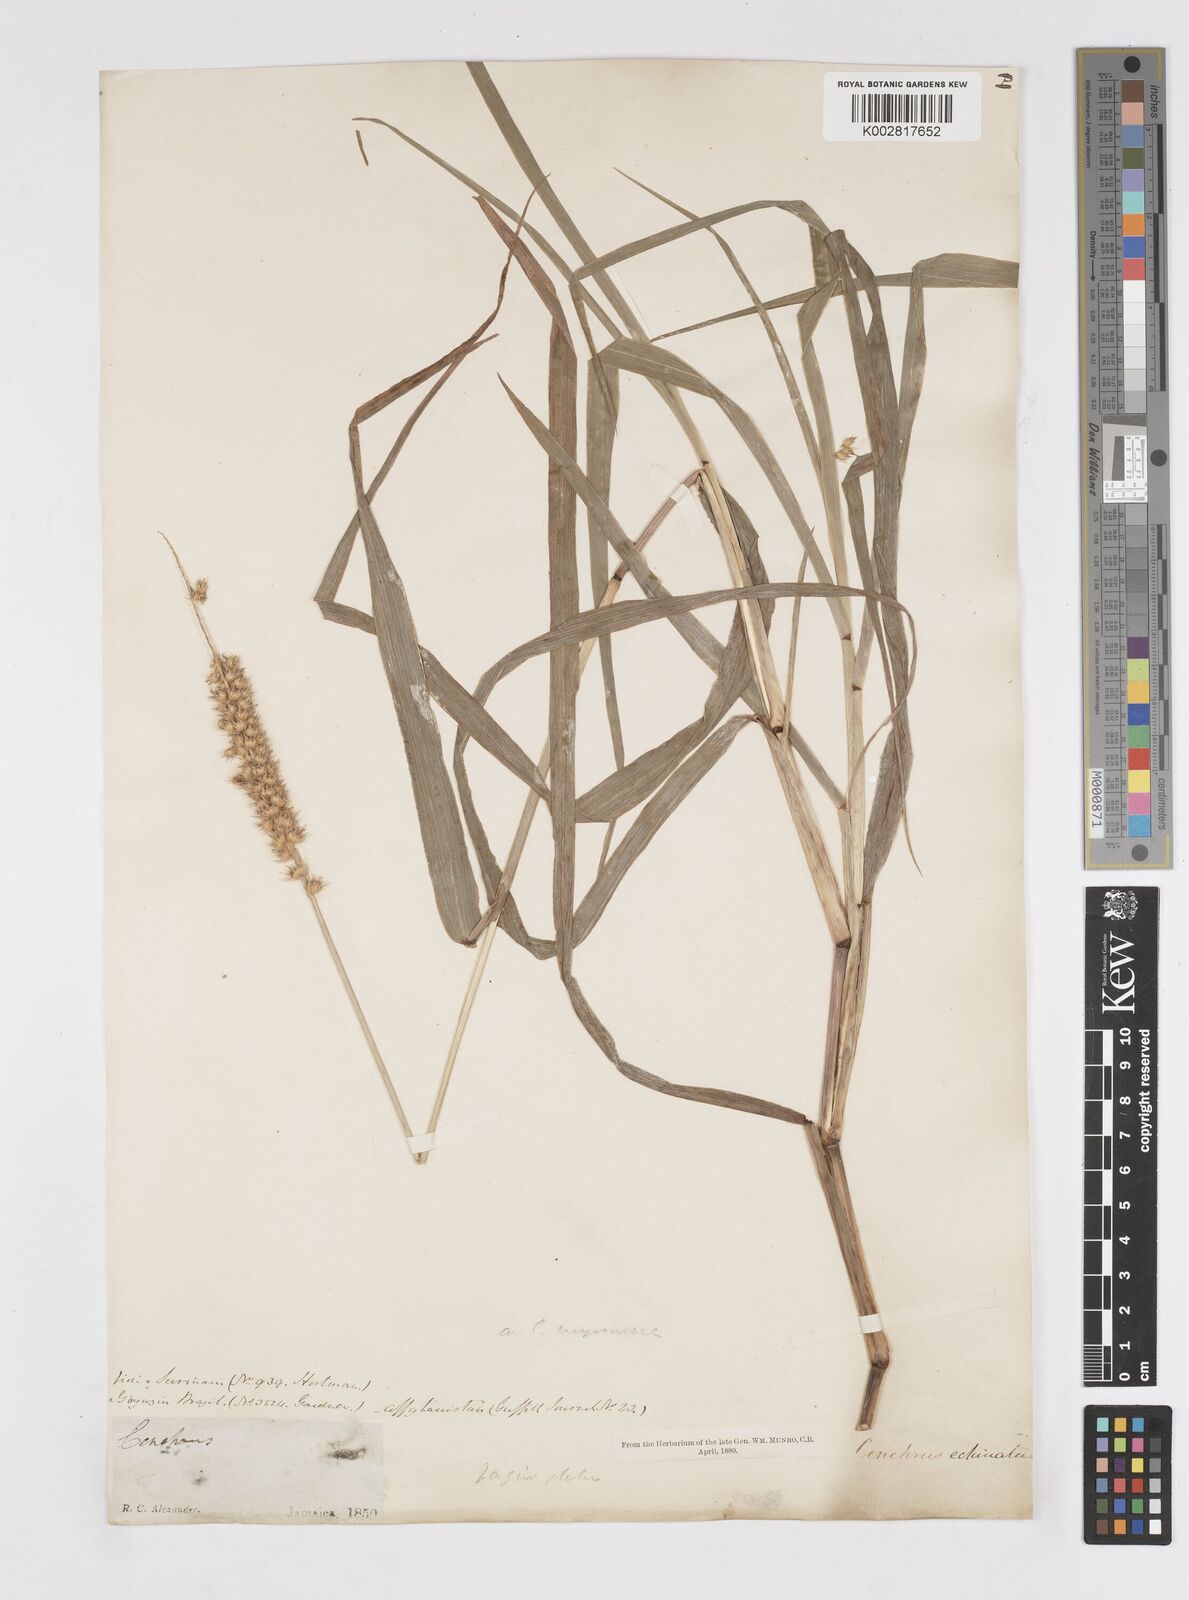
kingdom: Plantae
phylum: Tracheophyta
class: Liliopsida
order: Poales
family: Poaceae
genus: Cenchrus
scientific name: Cenchrus brownii
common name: Slim-bristle sandbur
